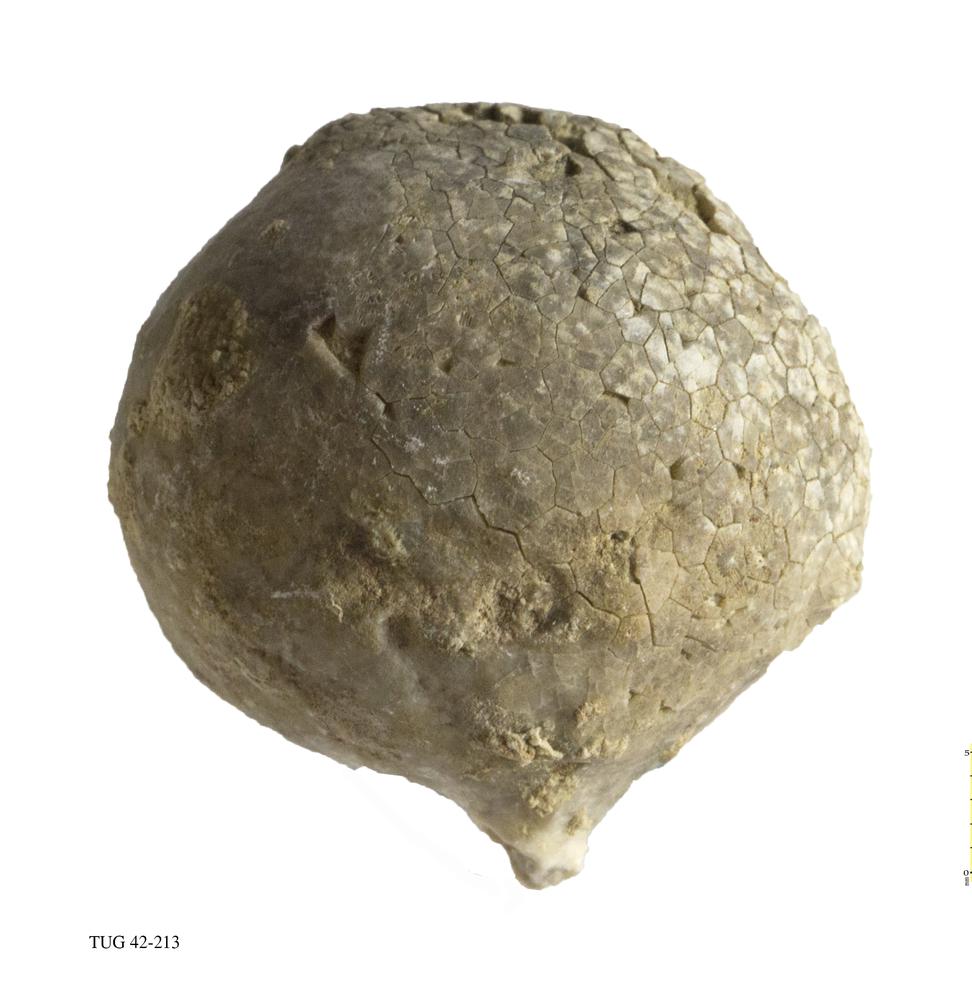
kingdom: Animalia
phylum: Echinodermata
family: Echinosphaeritidae
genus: Echinosphaerites
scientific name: Echinosphaerites Echinus aurantium
